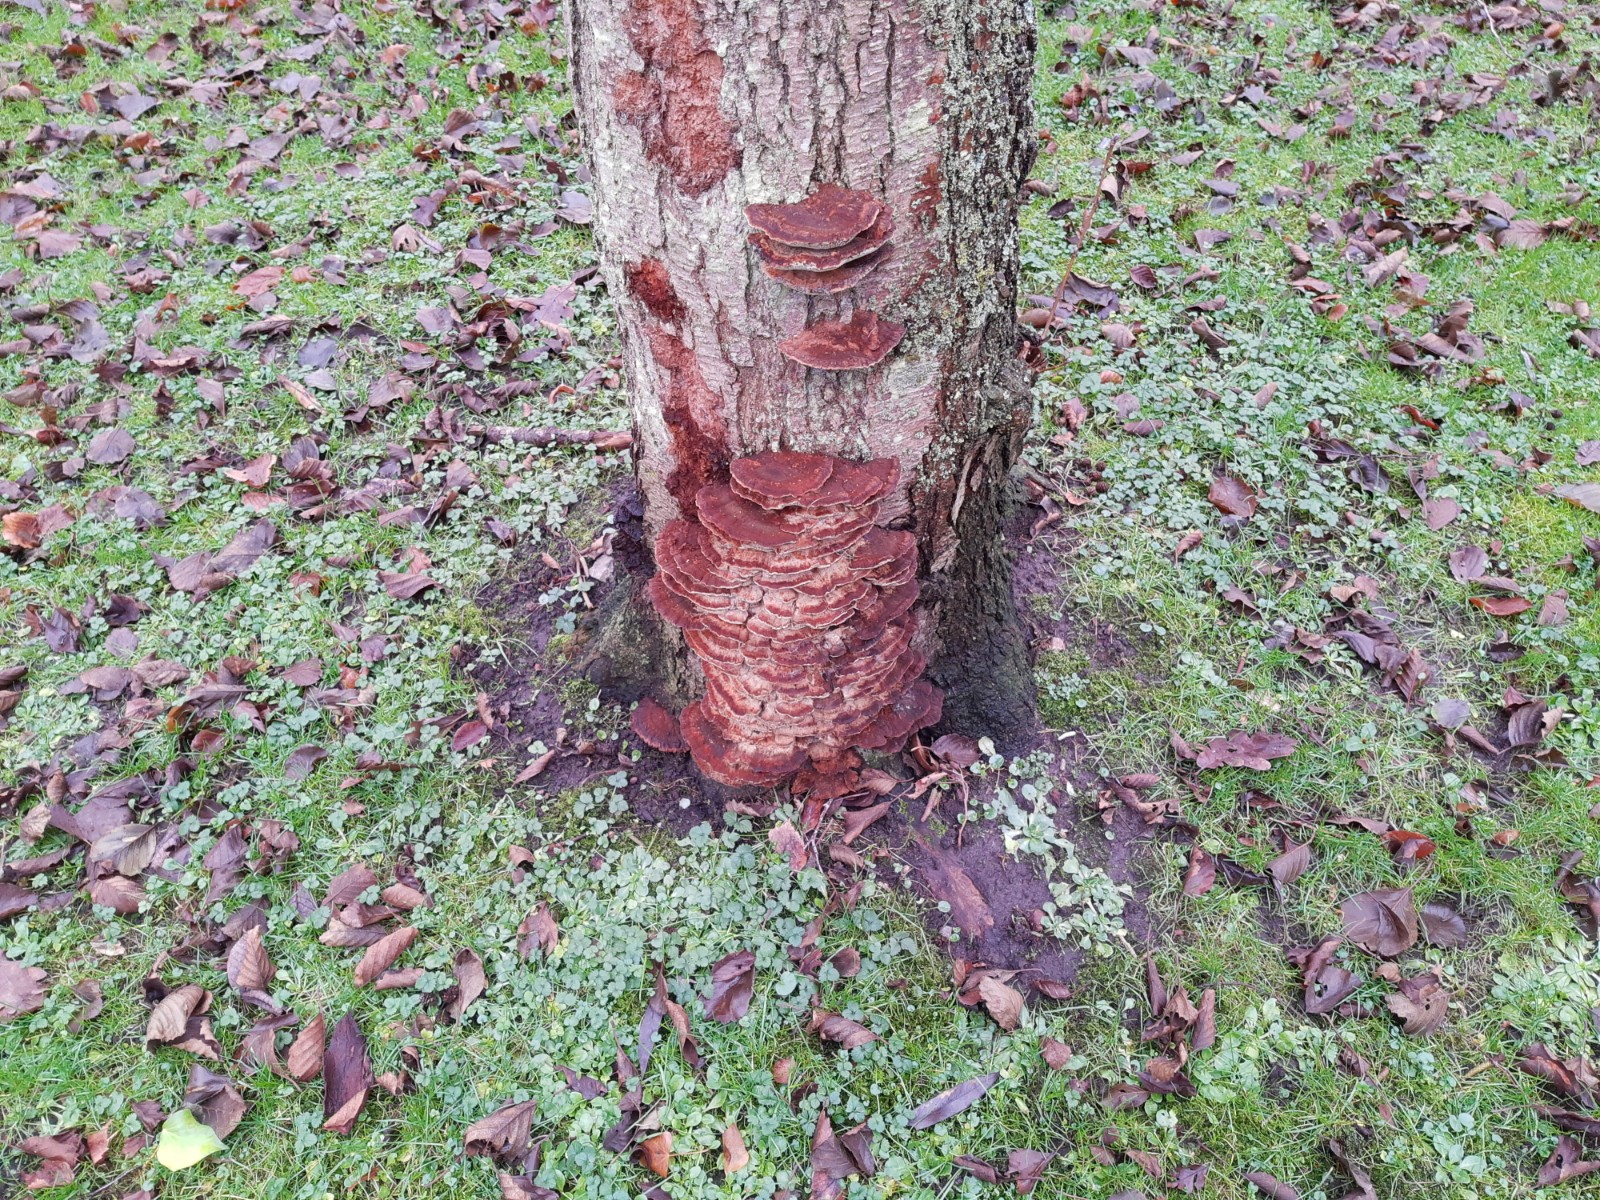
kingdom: Fungi
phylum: Basidiomycota
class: Agaricomycetes
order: Hymenochaetales
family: Hymenochaetaceae
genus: Xanthoporia
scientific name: Xanthoporia radiata
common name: elle-spejlporesvamp
